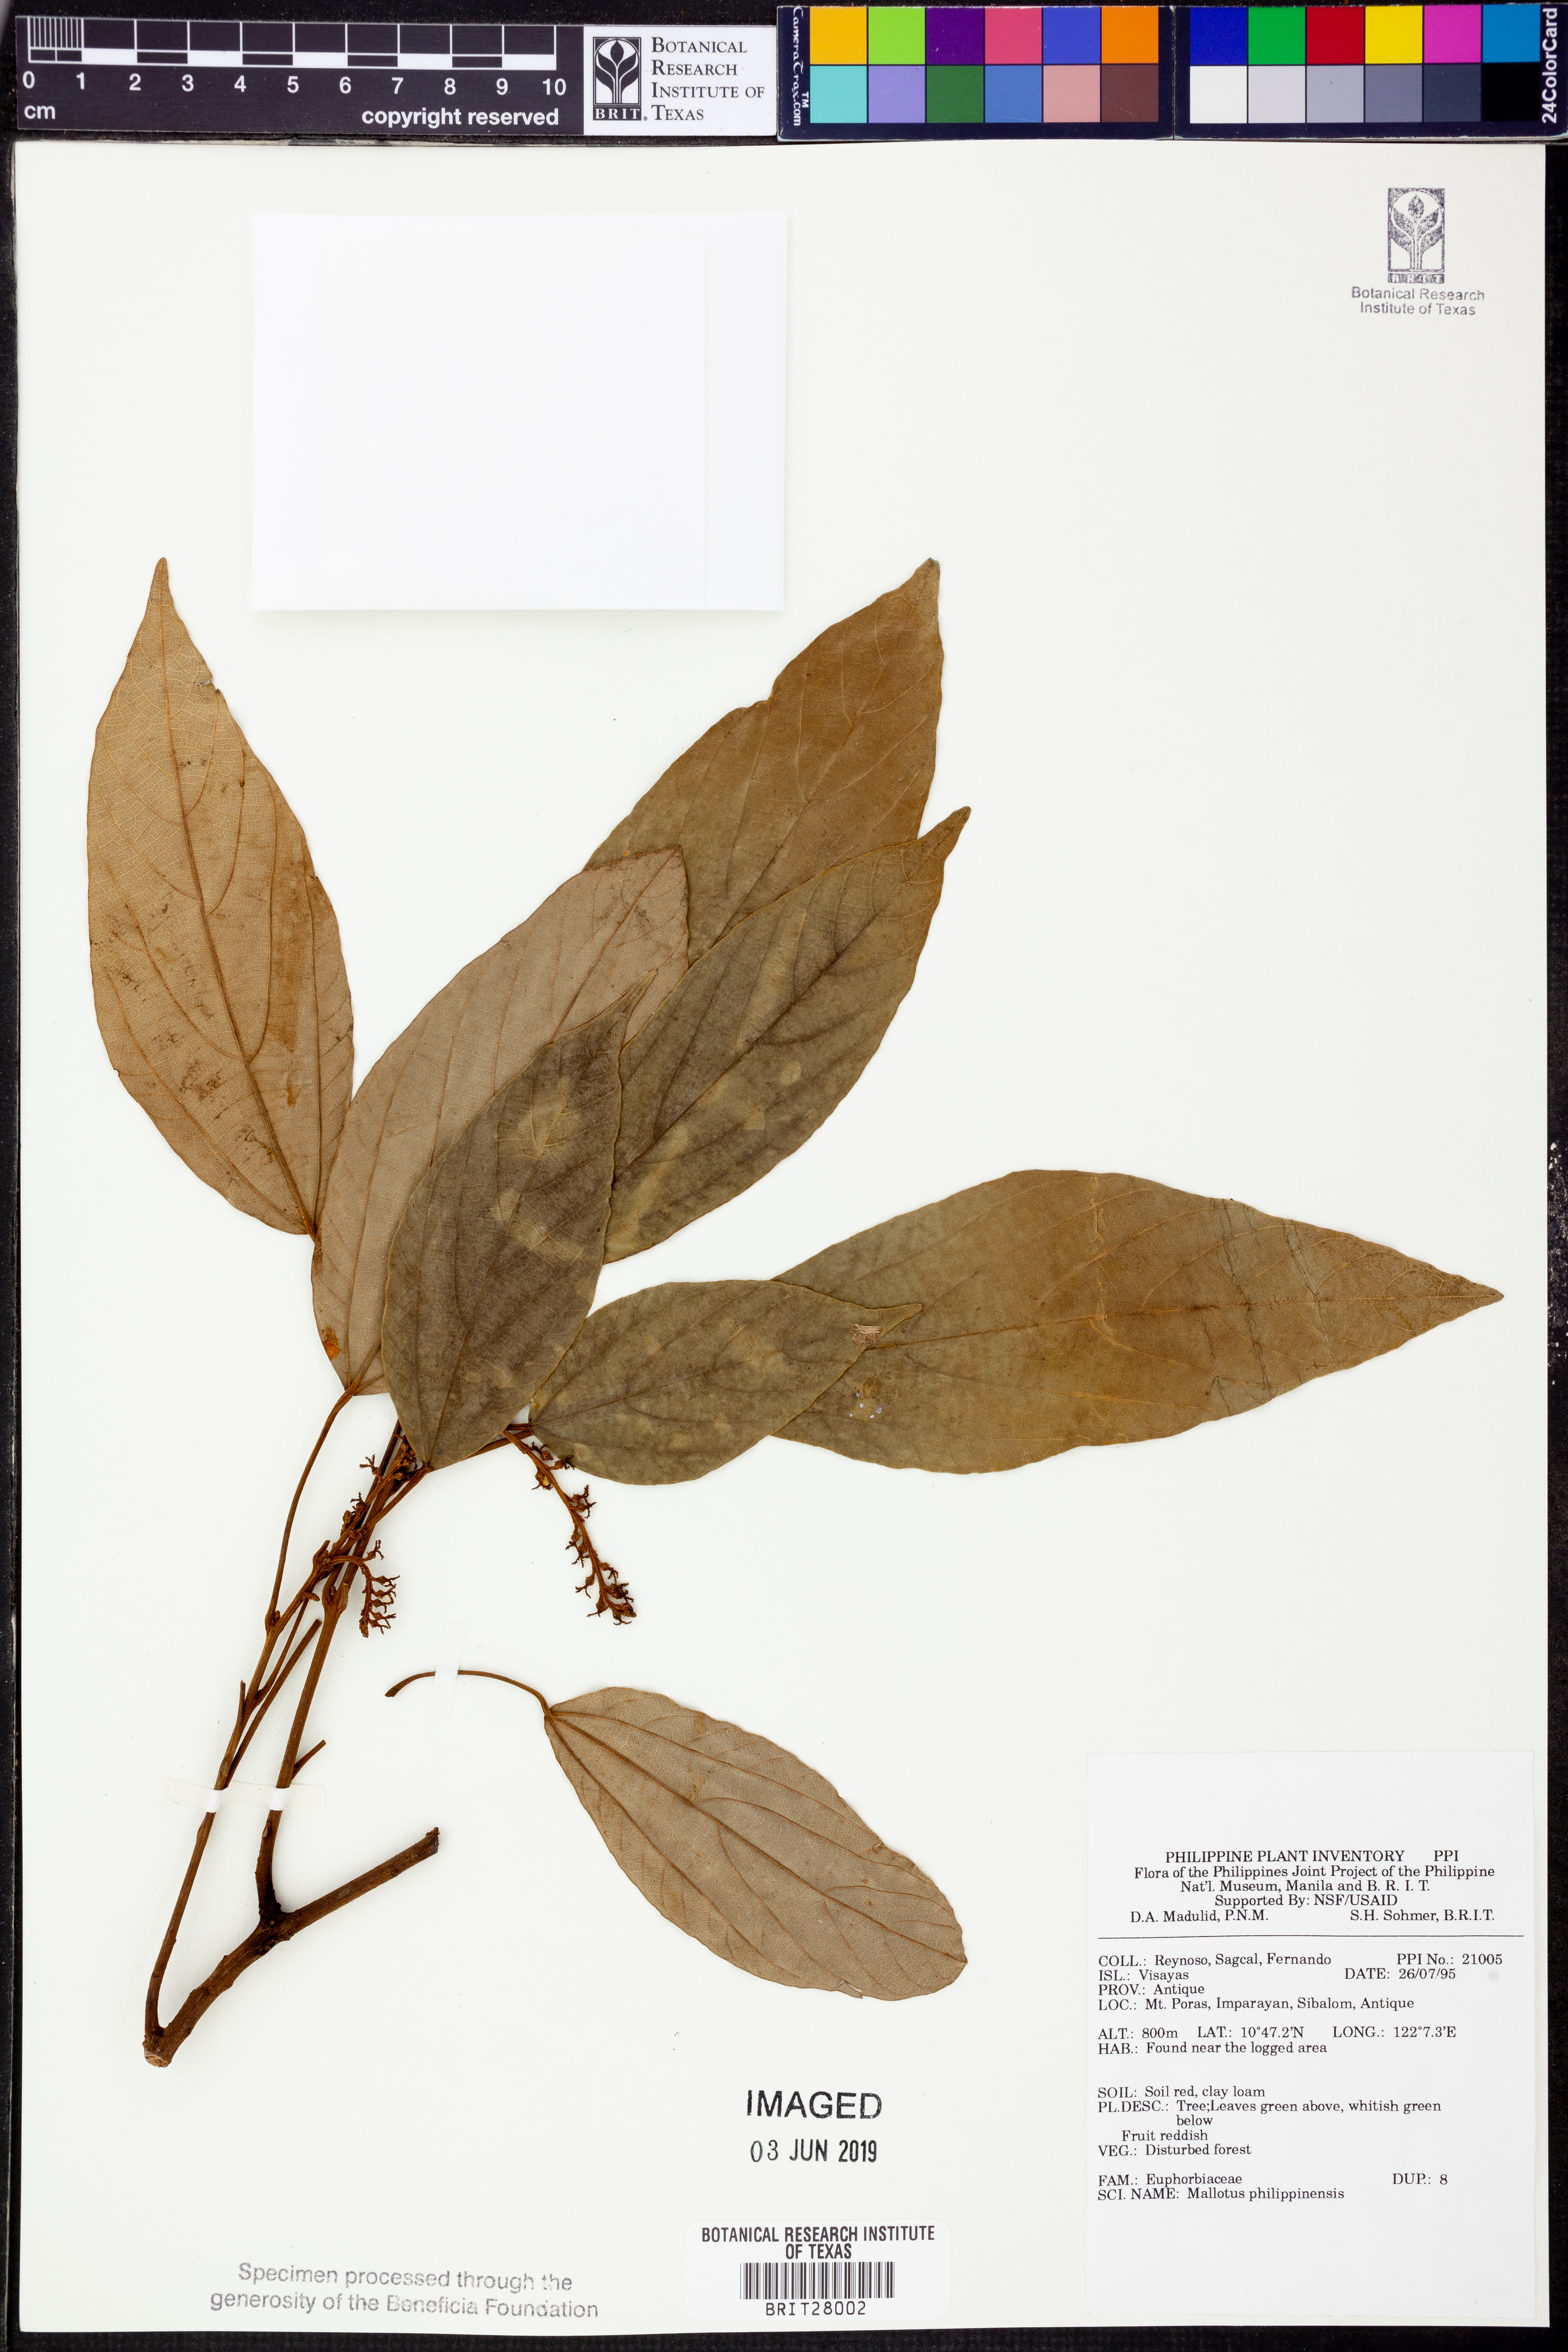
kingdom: Plantae
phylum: Tracheophyta
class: Magnoliopsida
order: Malpighiales
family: Euphorbiaceae
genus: Mallotus
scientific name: Mallotus philippensis
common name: Kamala tree
